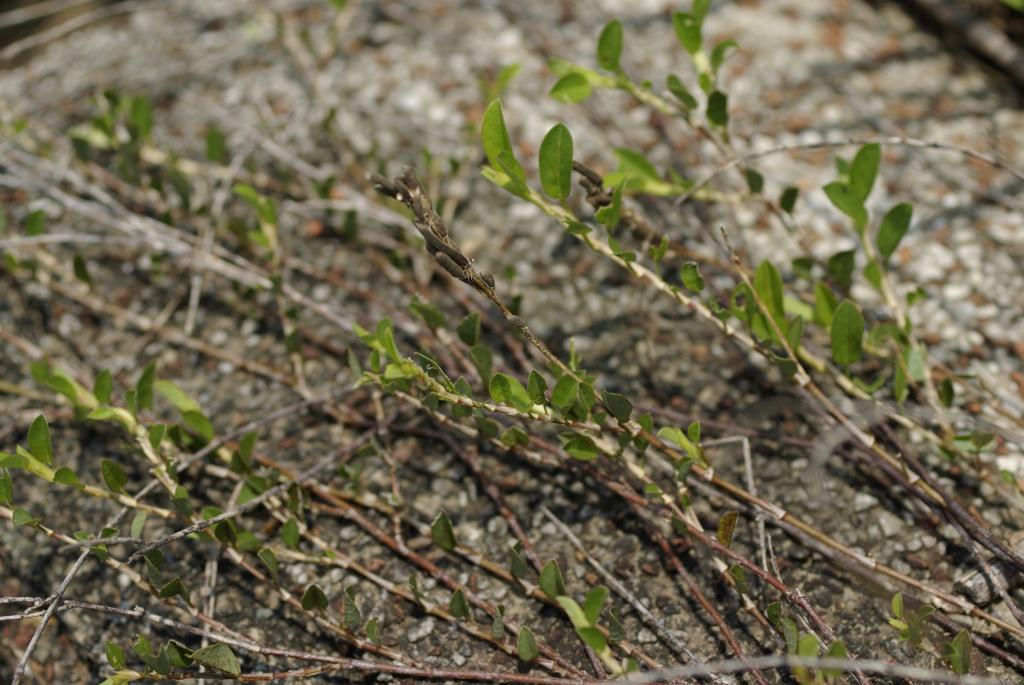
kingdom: Plantae
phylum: Tracheophyta
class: Magnoliopsida
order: Fabales
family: Fabaceae
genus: Alysicarpus
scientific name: Alysicarpus vaginalis
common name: White moneywort
